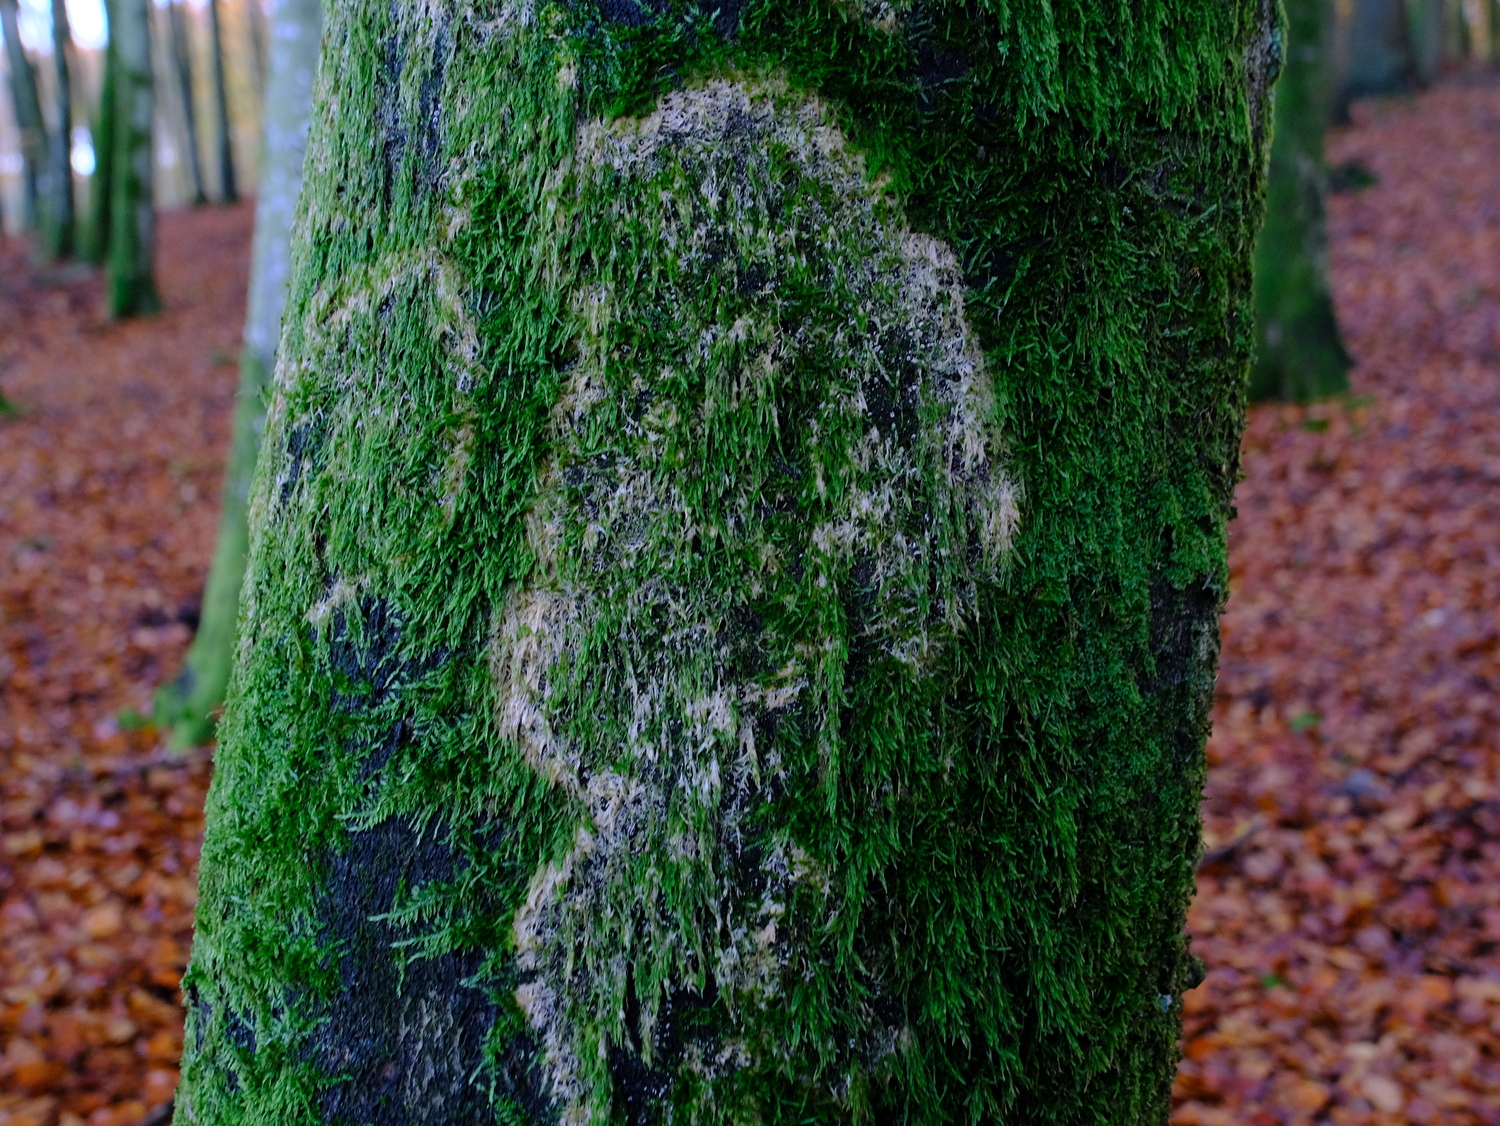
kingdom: Fungi
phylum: Basidiomycota
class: Agaricomycetes
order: Agaricales
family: Chromocyphellaceae
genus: Chromocyphella
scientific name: Chromocyphella muscicola
